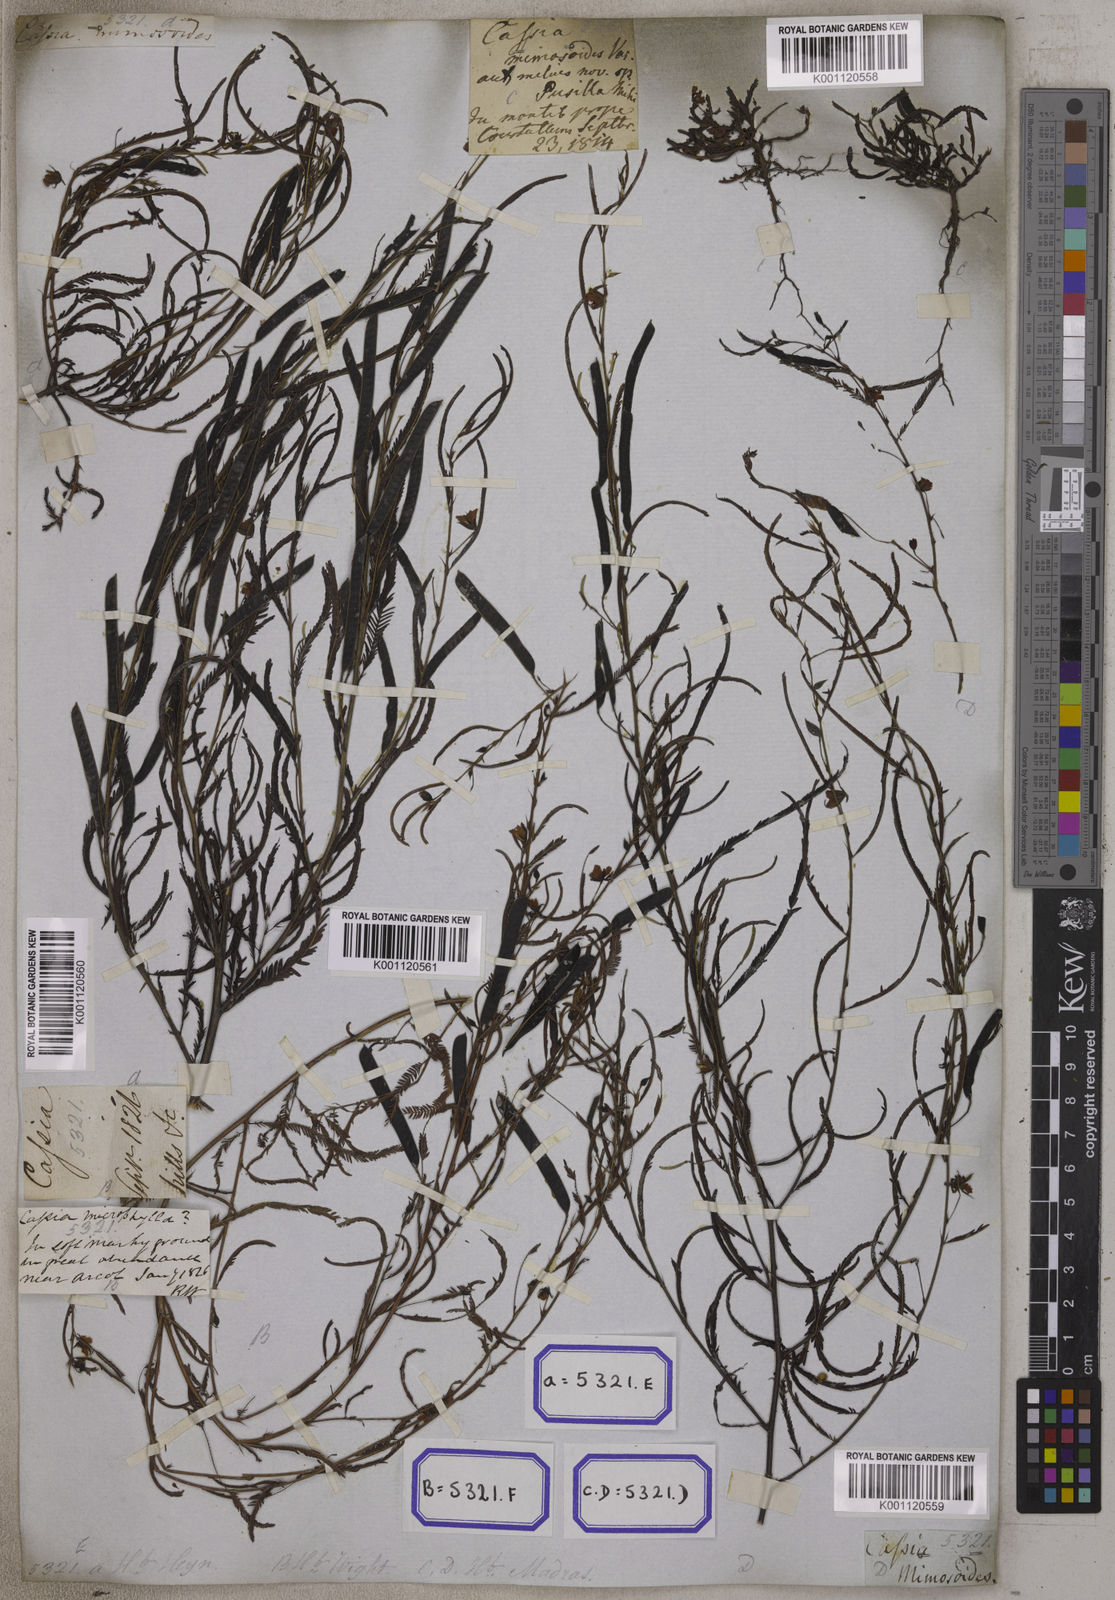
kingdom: Plantae
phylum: Tracheophyta
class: Magnoliopsida
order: Fabales
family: Fabaceae
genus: Chamaecrista
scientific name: Chamaecrista mimosoides
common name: Fish-bone cassia
